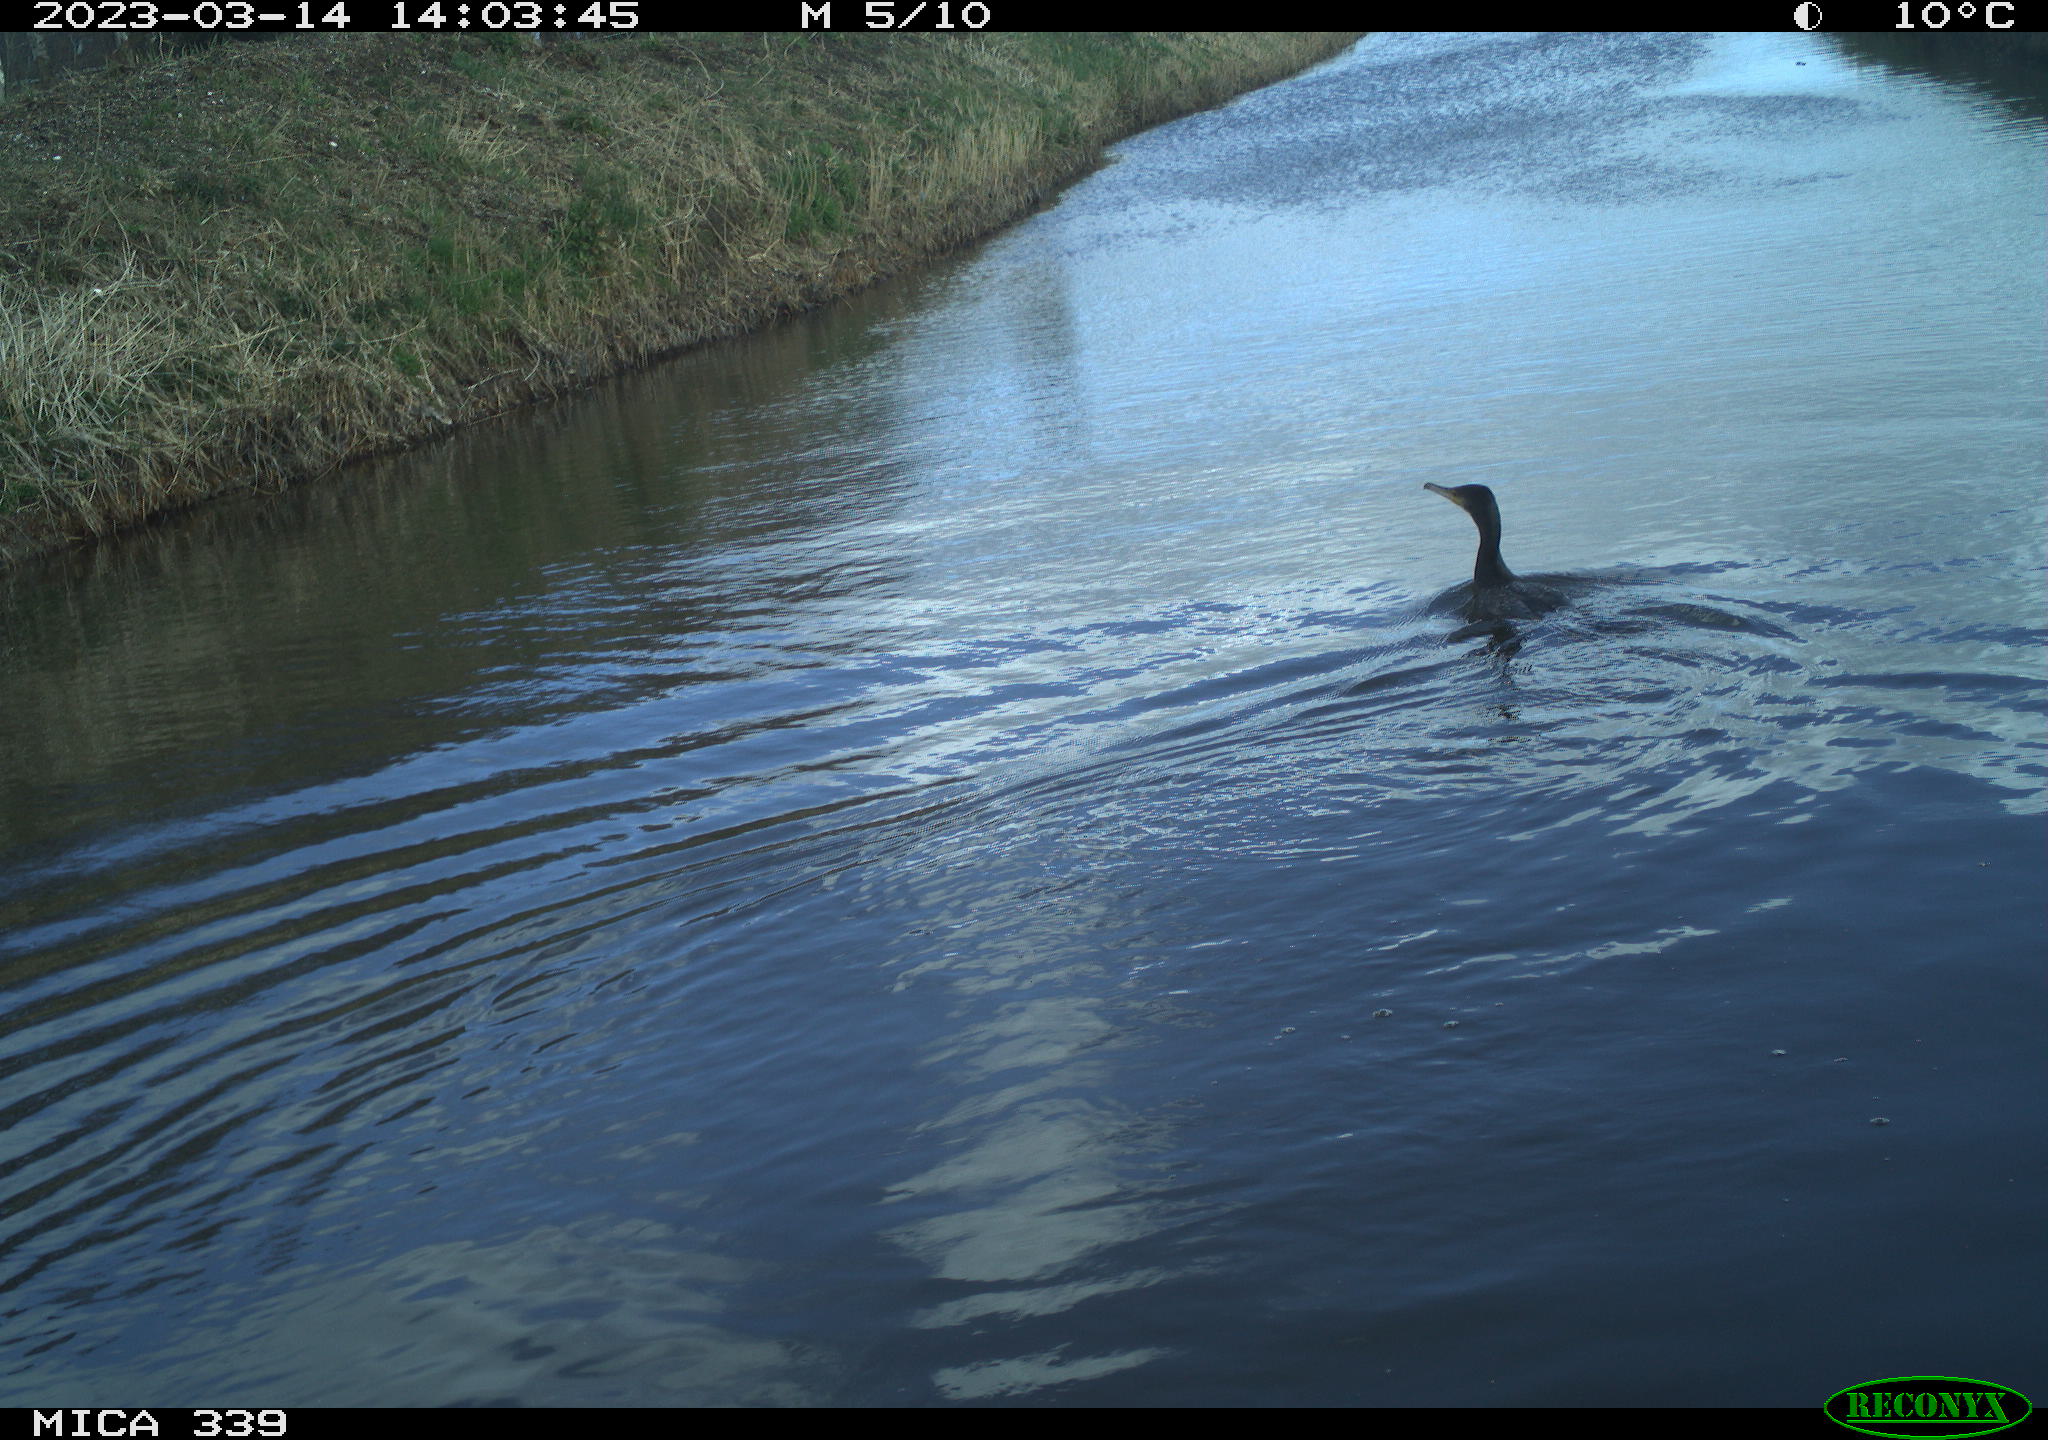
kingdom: Animalia
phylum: Chordata
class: Aves
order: Gruiformes
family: Rallidae
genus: Fulica
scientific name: Fulica atra
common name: Eurasian coot
